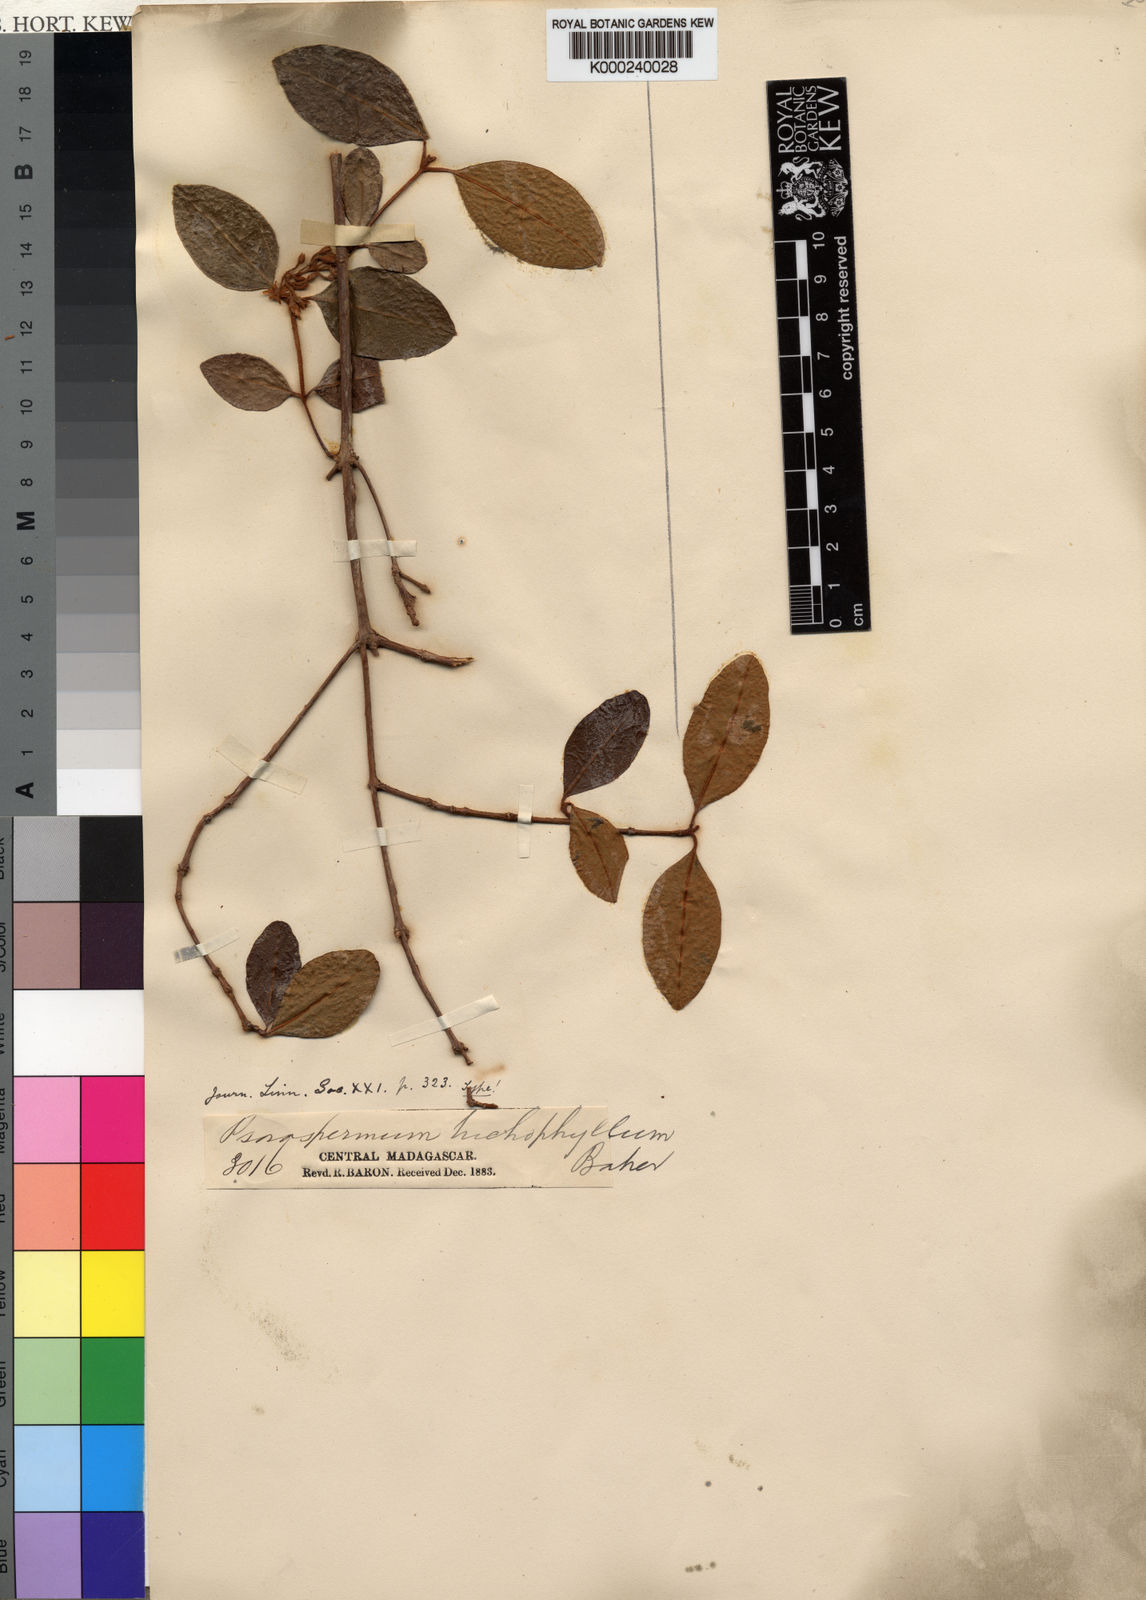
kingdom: Plantae
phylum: Tracheophyta
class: Magnoliopsida
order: Malpighiales
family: Hypericaceae
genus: Psorospermum
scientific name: Psorospermum trichophyllum
